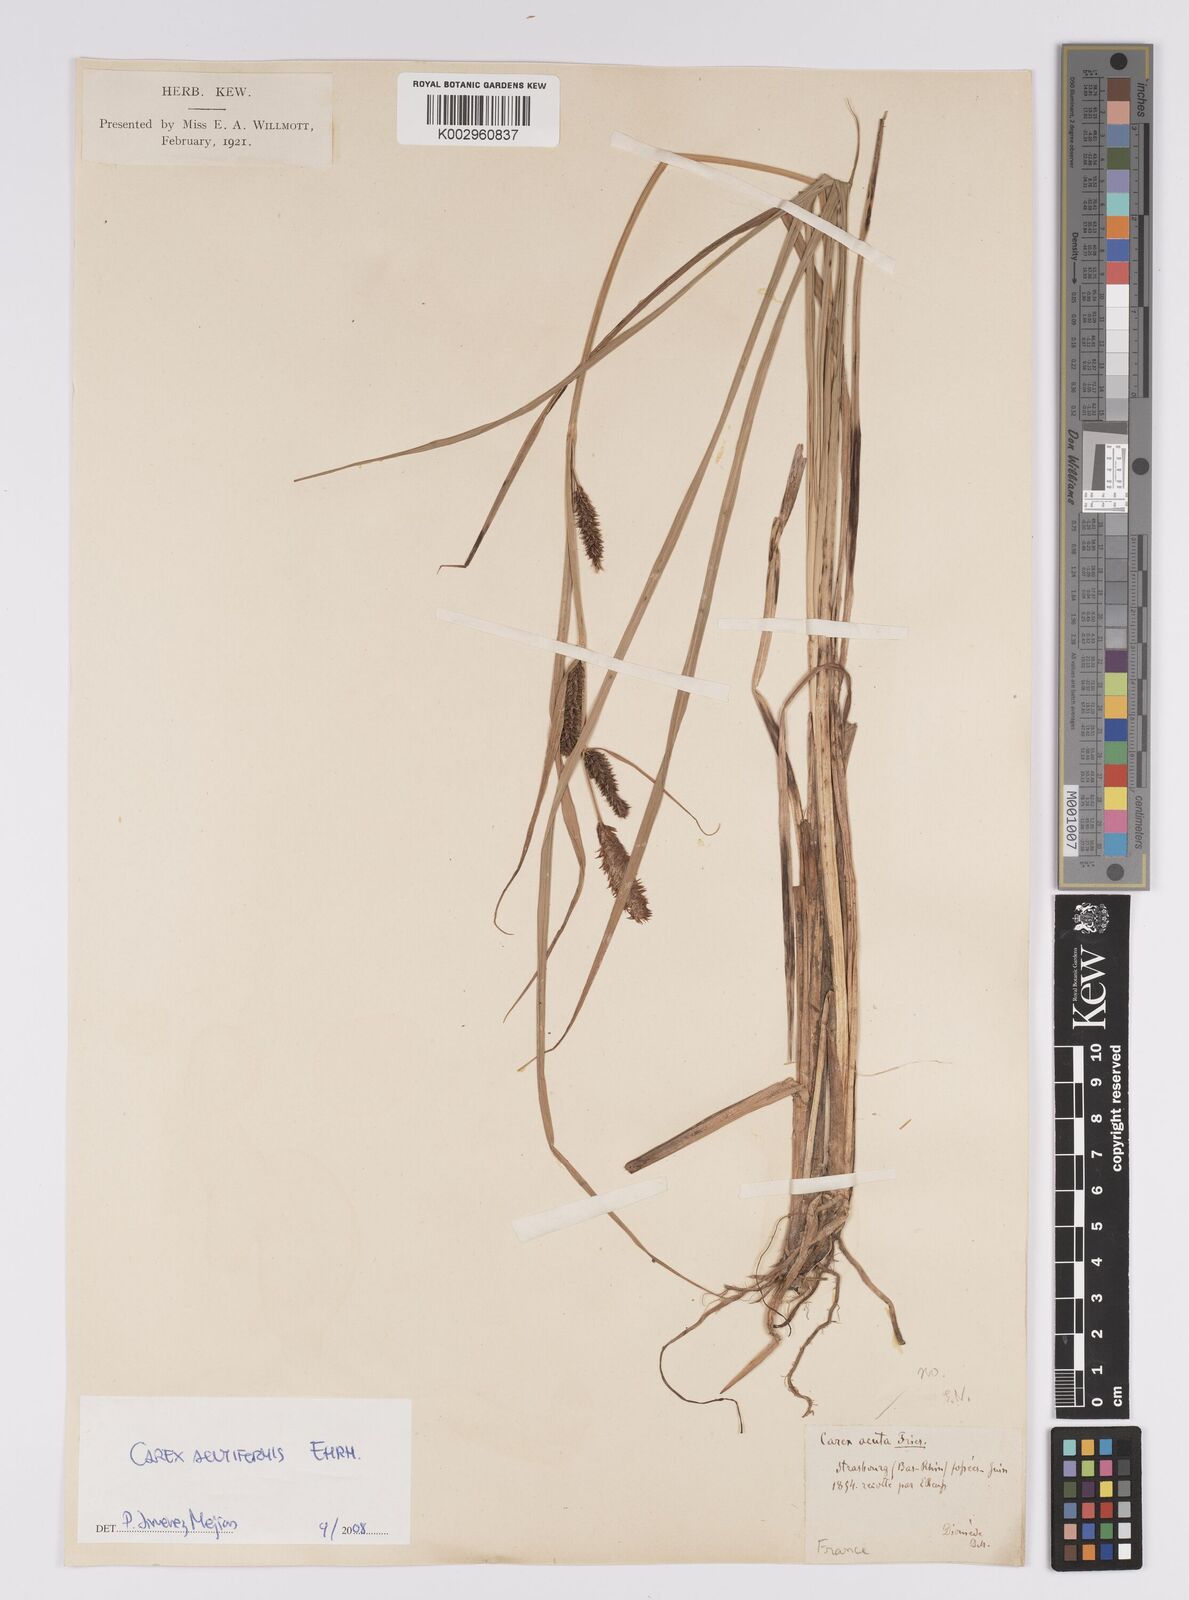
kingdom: Plantae
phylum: Tracheophyta
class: Liliopsida
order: Poales
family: Cyperaceae
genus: Carex
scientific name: Carex acutiformis
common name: Lesser pond-sedge
